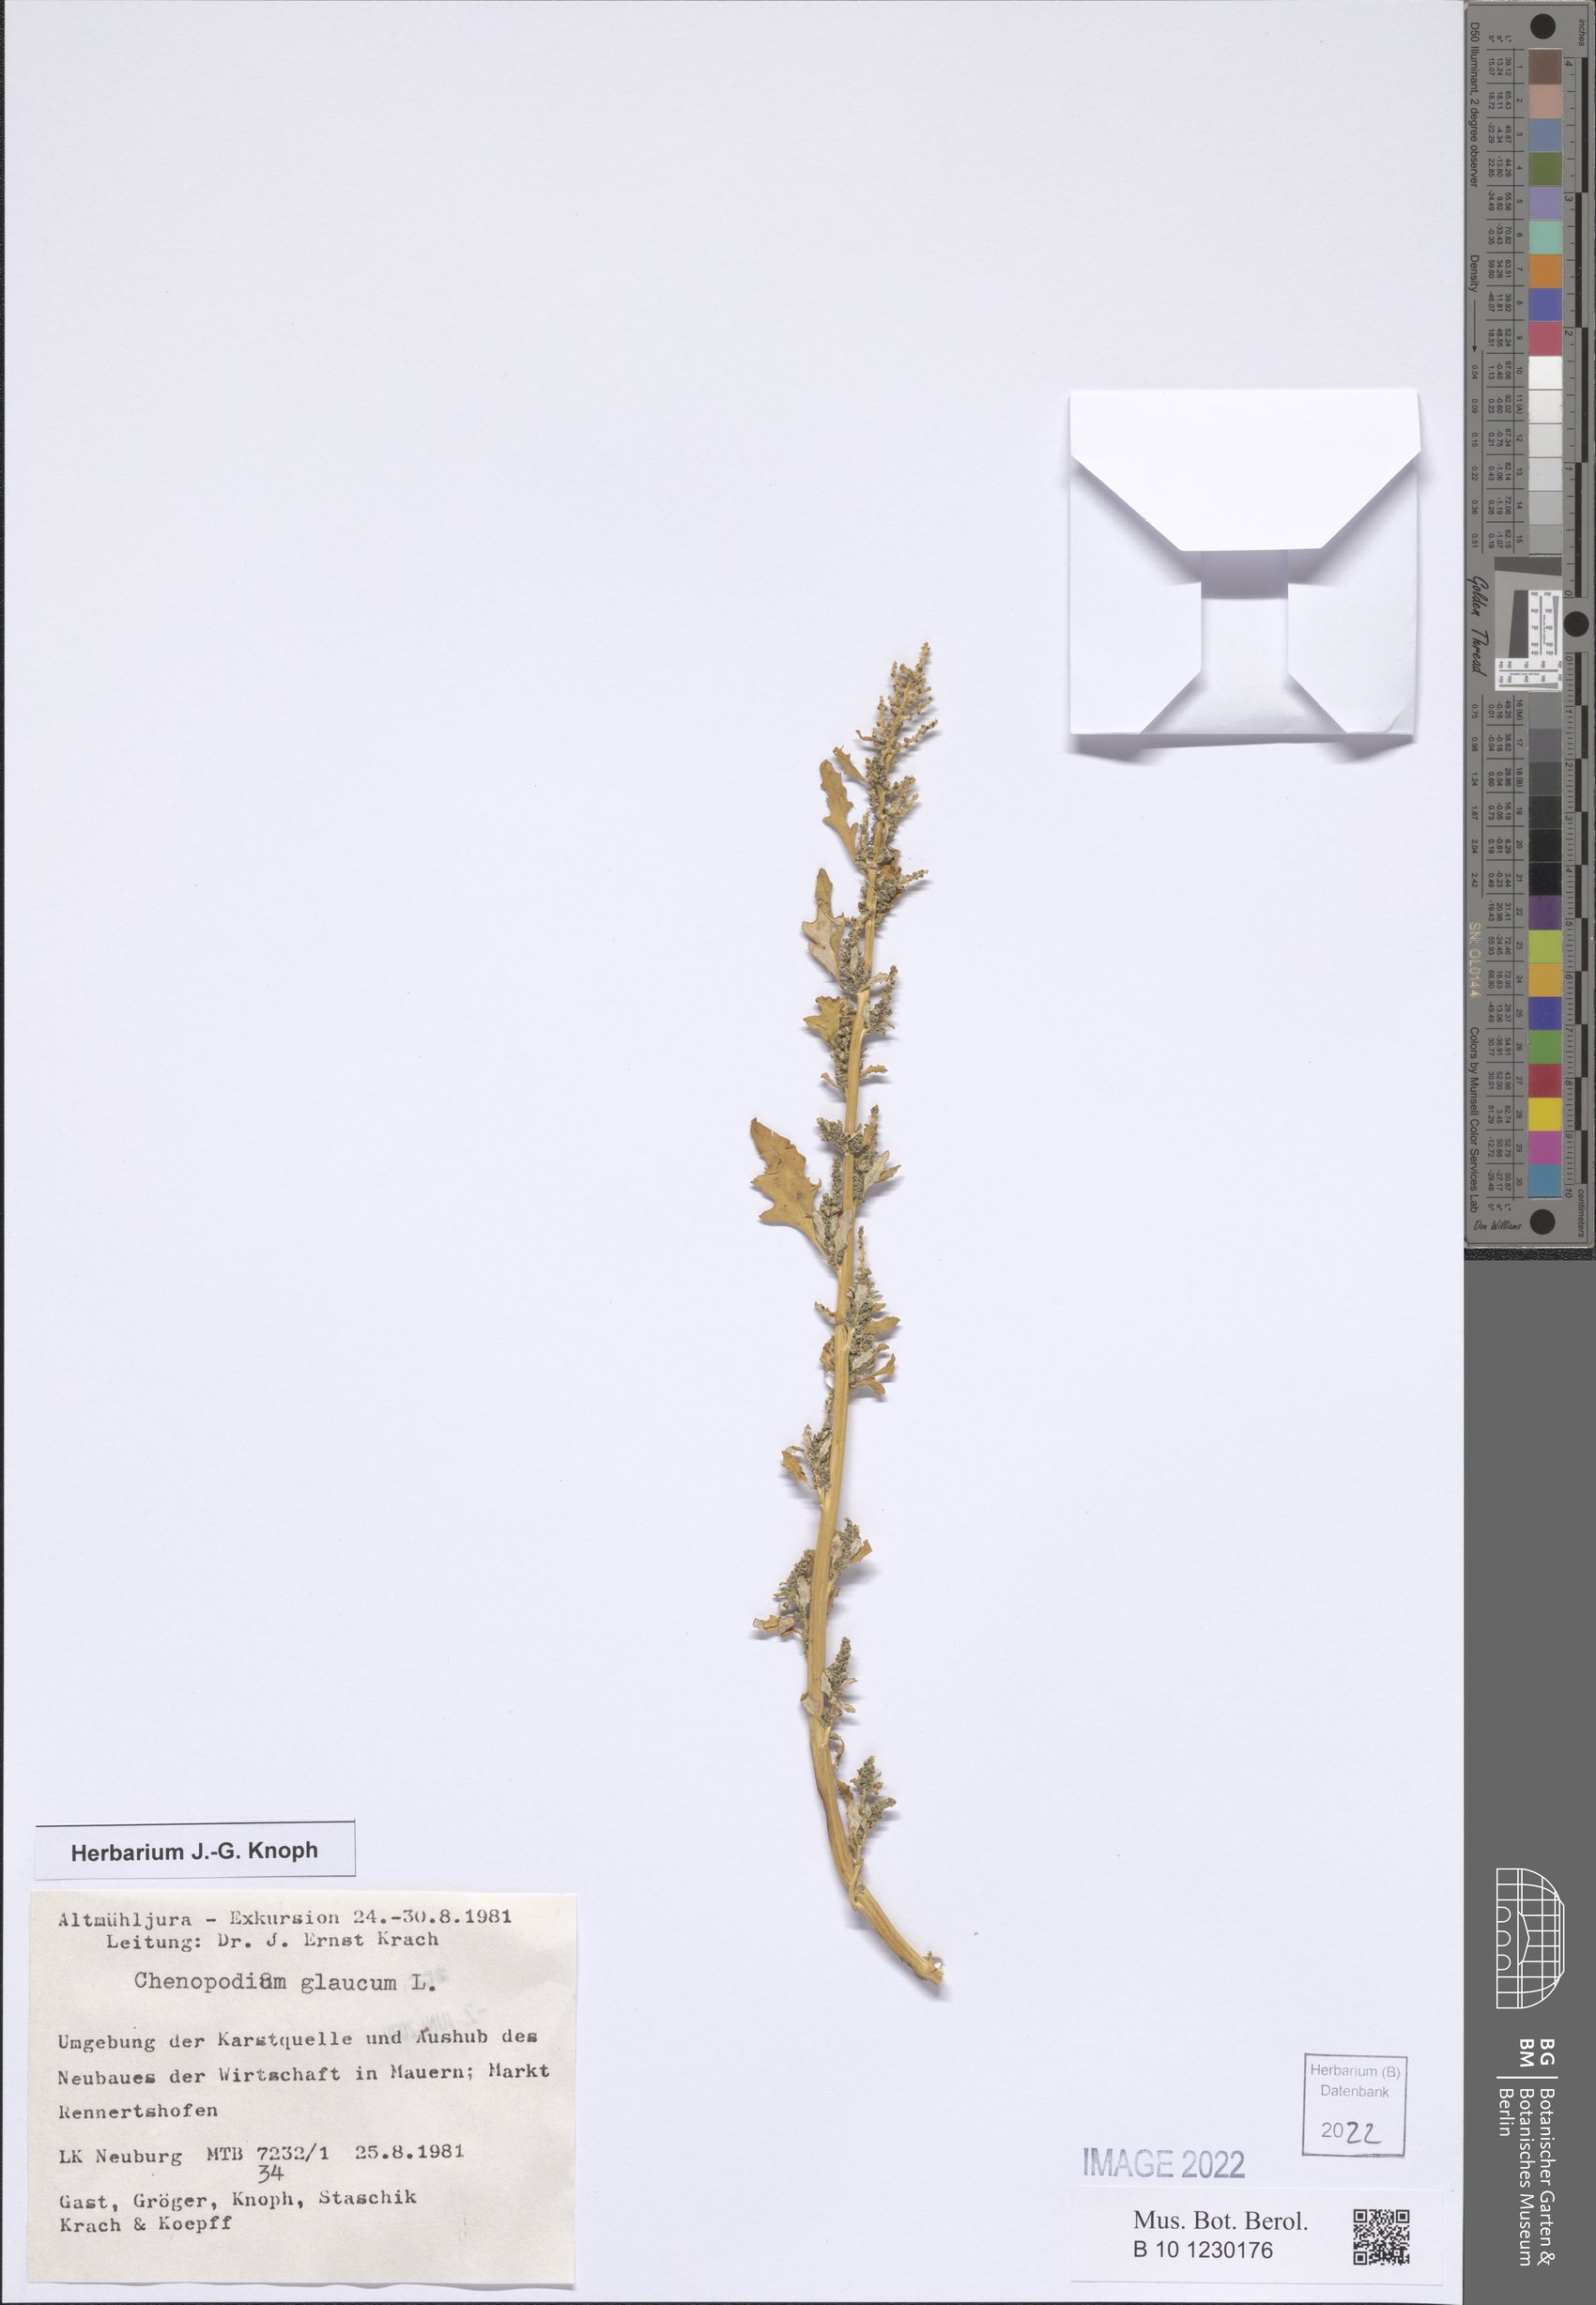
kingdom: Plantae
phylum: Tracheophyta
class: Magnoliopsida
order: Caryophyllales
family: Amaranthaceae
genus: Oxybasis
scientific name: Oxybasis glauca
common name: Glaucous goosefoot
